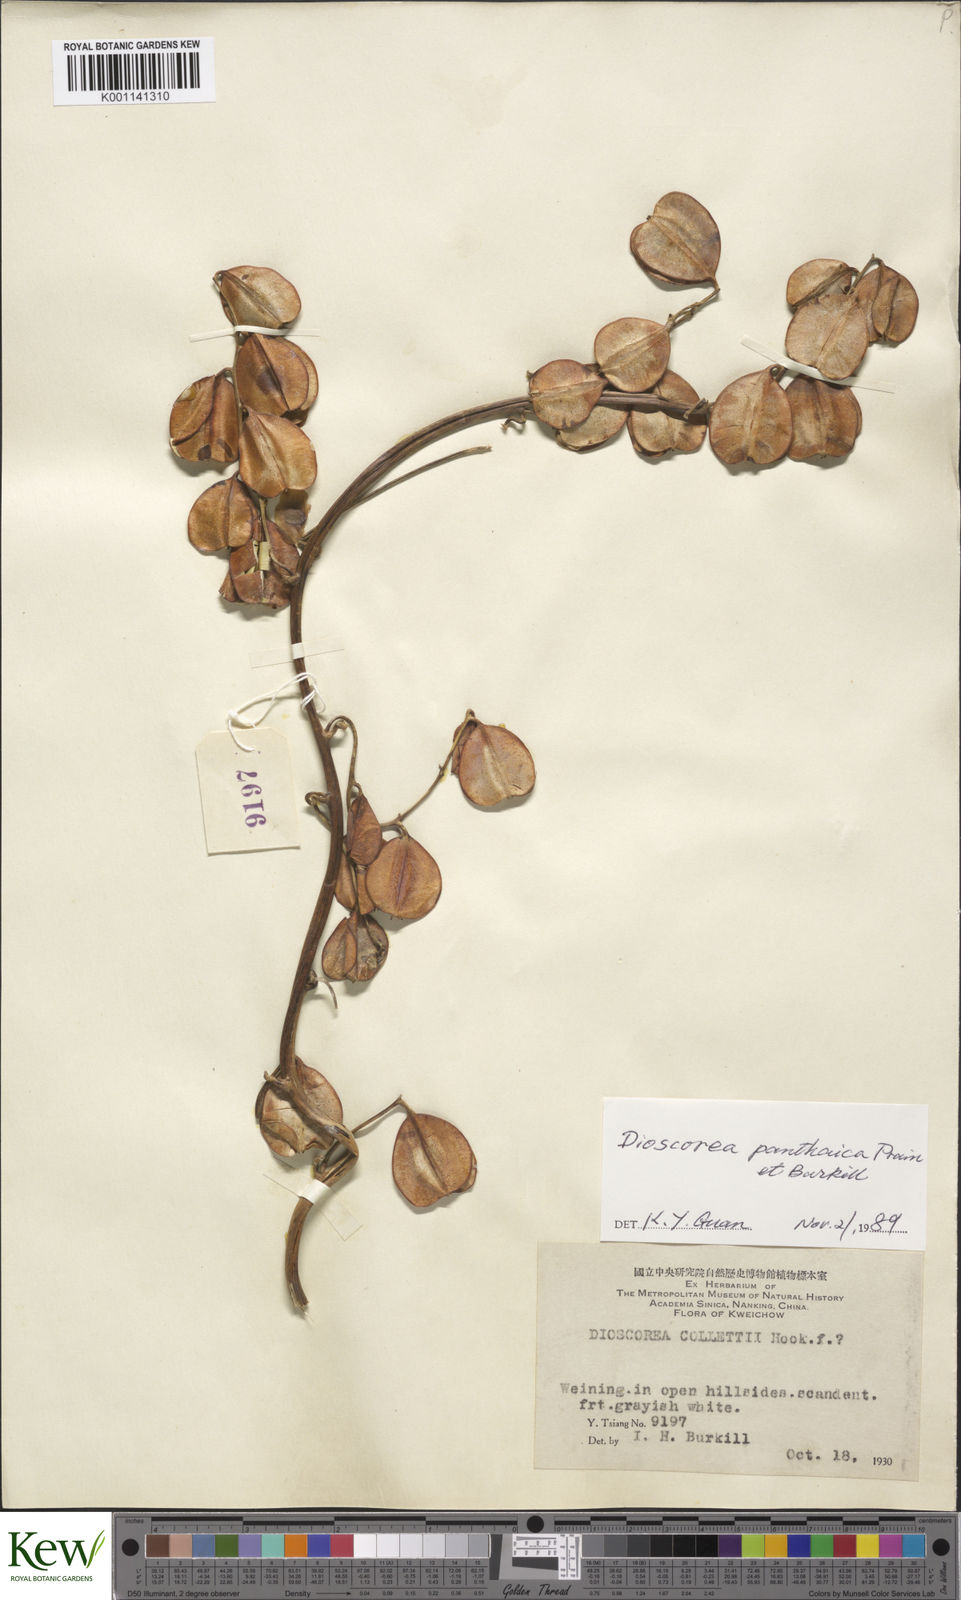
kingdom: Plantae
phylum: Tracheophyta
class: Liliopsida
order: Dioscoreales
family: Dioscoreaceae
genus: Dioscorea
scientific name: Dioscorea panthaica
